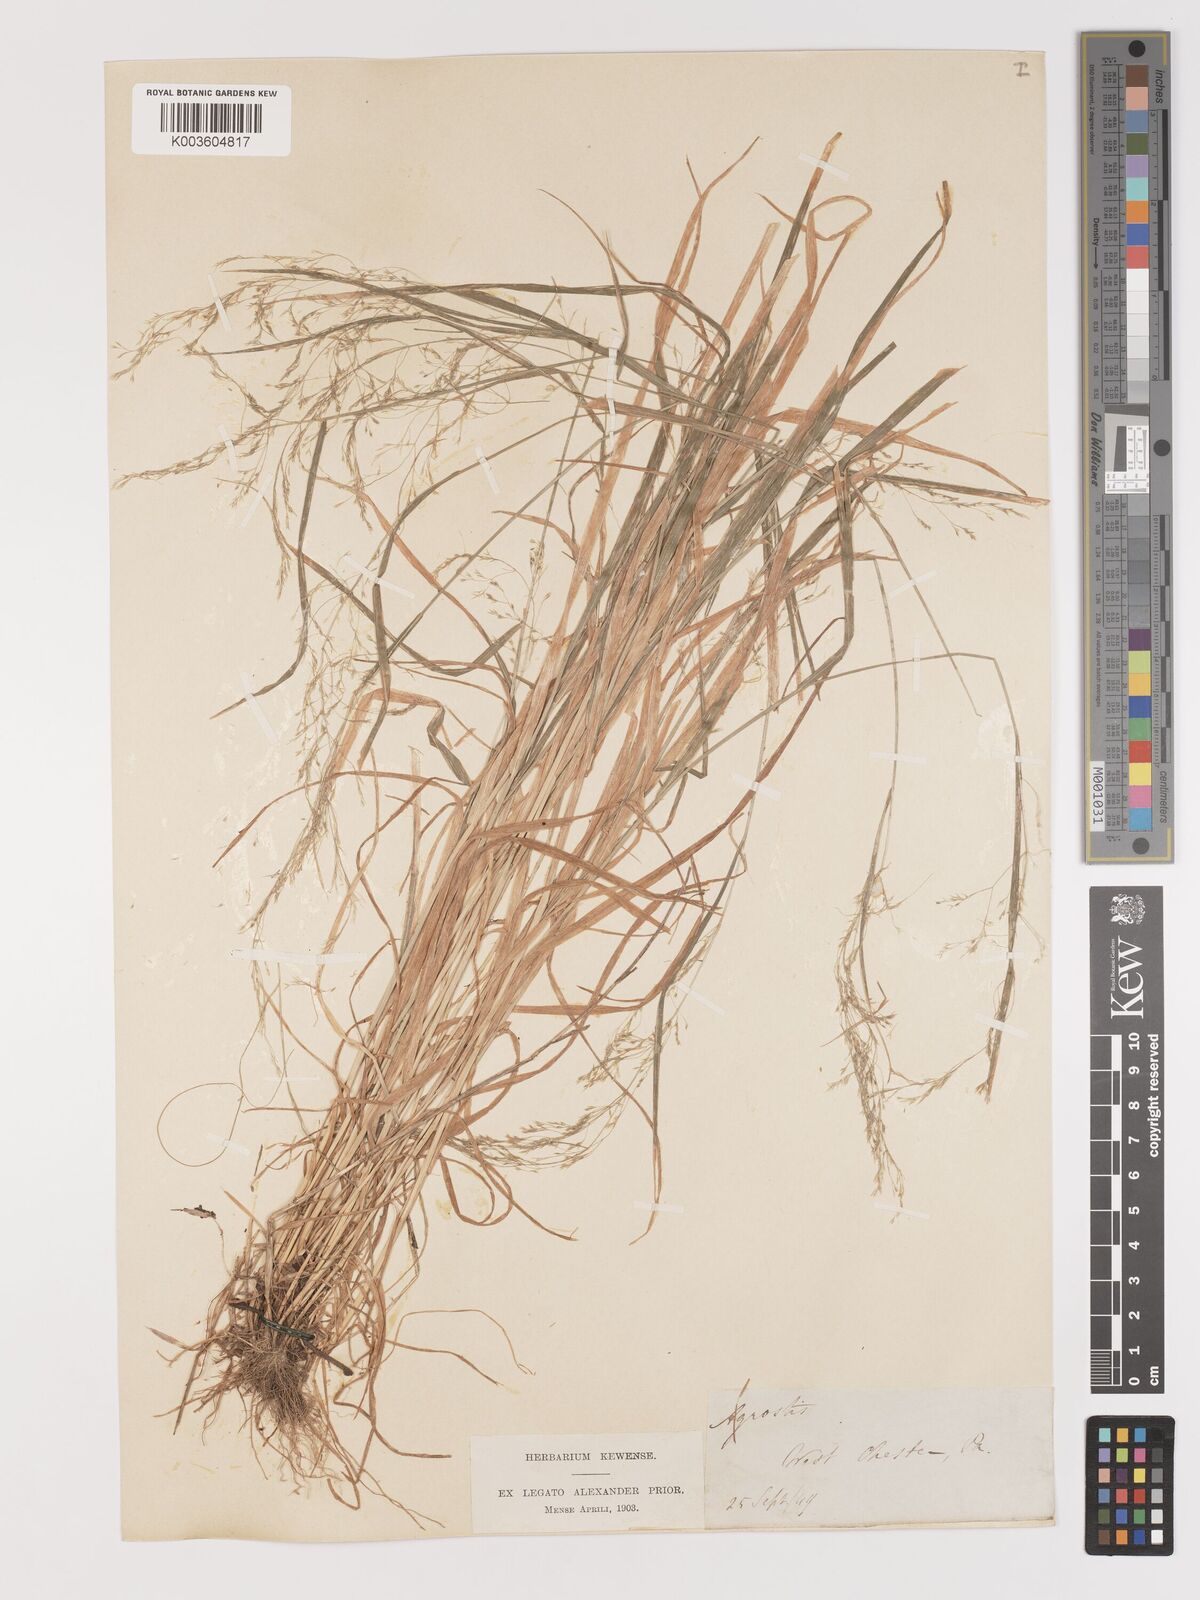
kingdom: Plantae
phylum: Tracheophyta
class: Liliopsida
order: Poales
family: Poaceae
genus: Agrostis
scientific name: Agrostis
